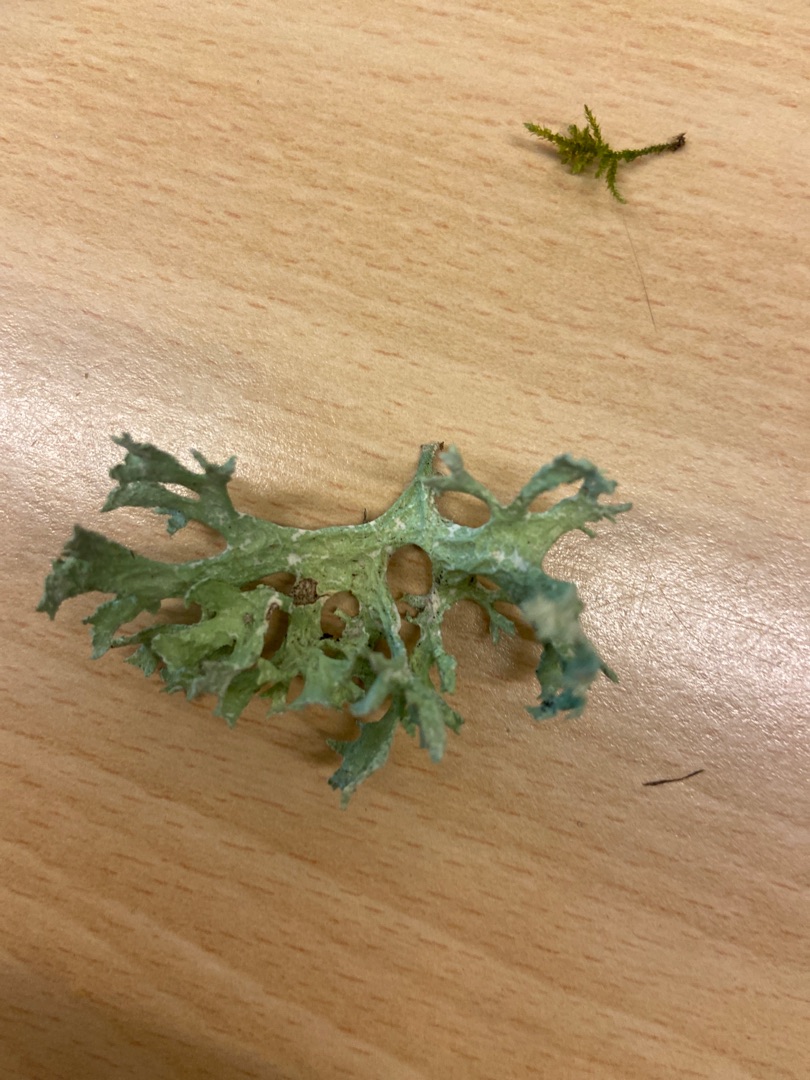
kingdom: Fungi
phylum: Ascomycota
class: Lecanoromycetes
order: Lecanorales
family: Parmeliaceae
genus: Evernia
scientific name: Evernia prunastri
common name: Almindelig slåenlav
